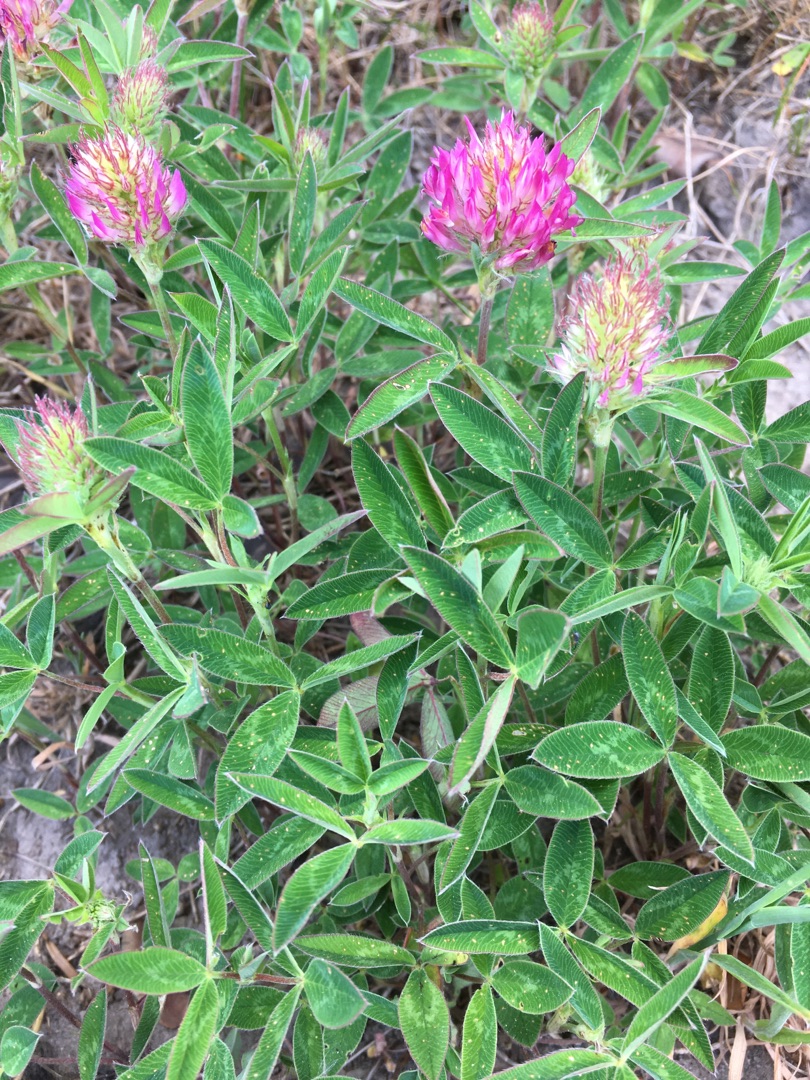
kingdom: Plantae
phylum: Tracheophyta
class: Magnoliopsida
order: Fabales
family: Fabaceae
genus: Trifolium
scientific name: Trifolium medium
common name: Bugtet kløver
